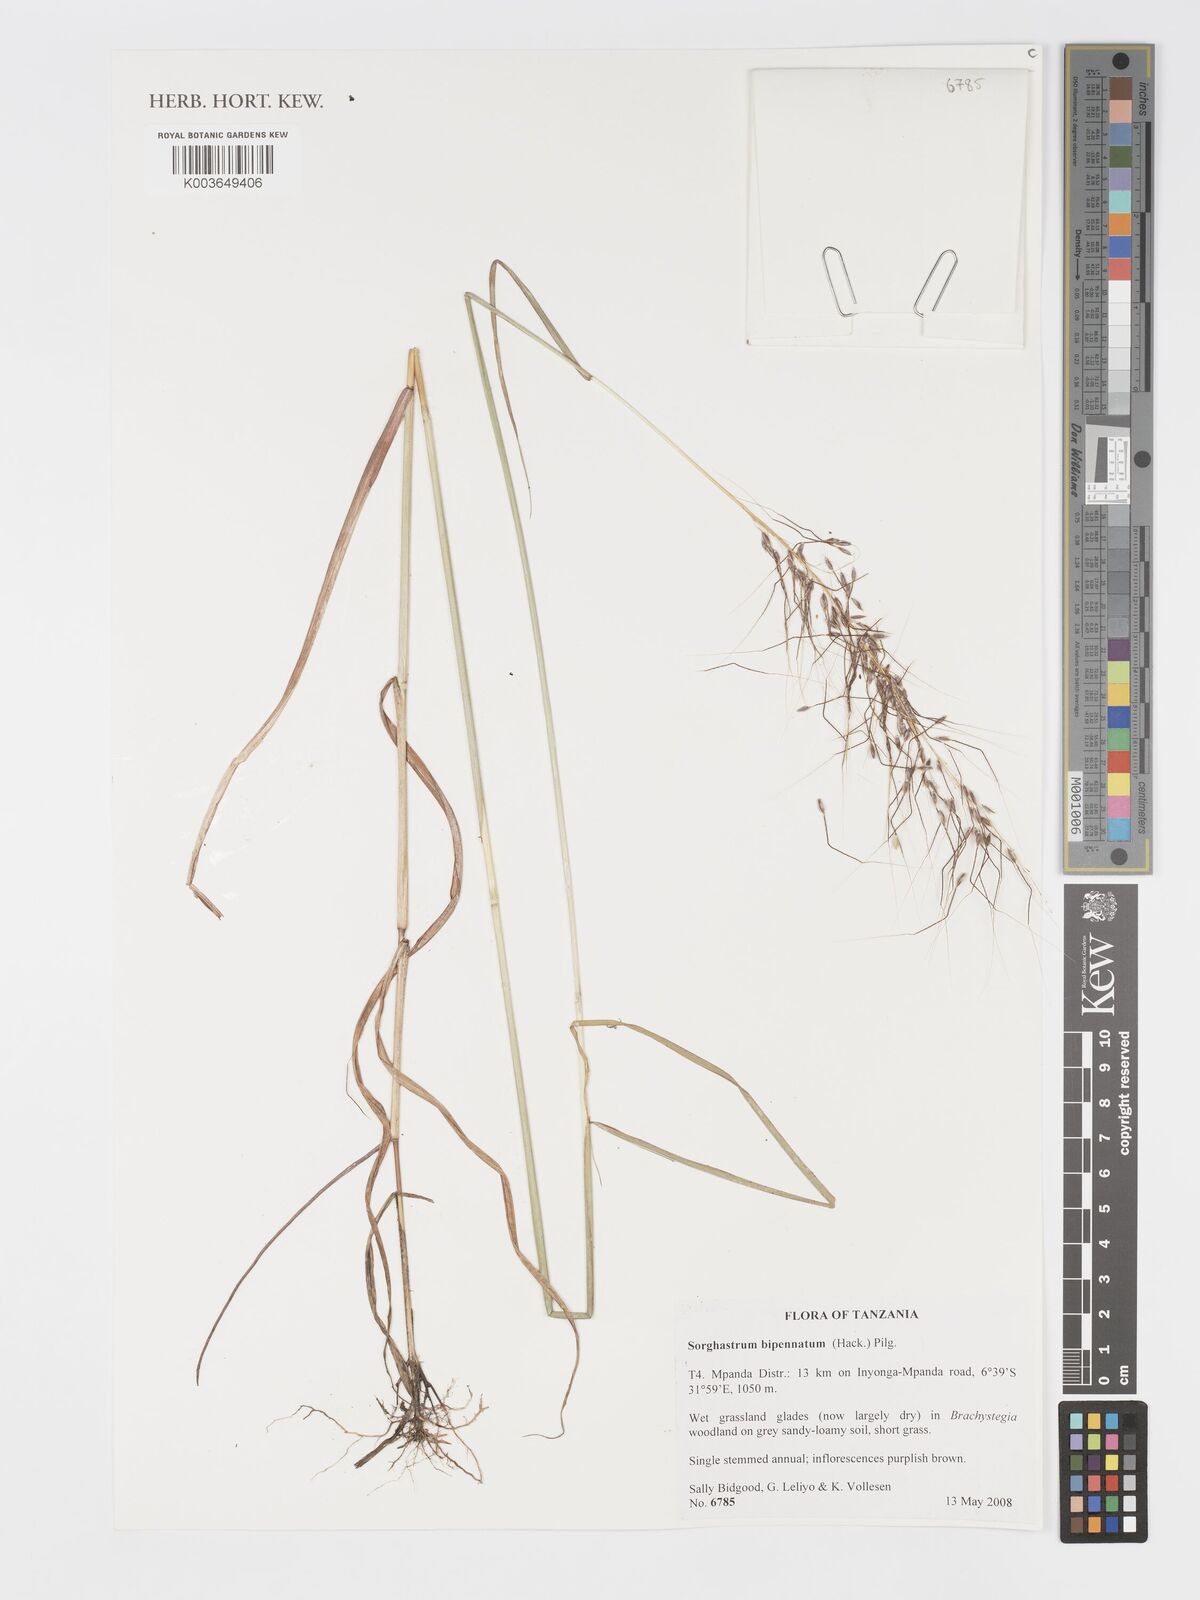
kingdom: Plantae
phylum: Tracheophyta
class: Liliopsida
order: Poales
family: Poaceae
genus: Sorghastrum
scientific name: Sorghastrum incompletum
